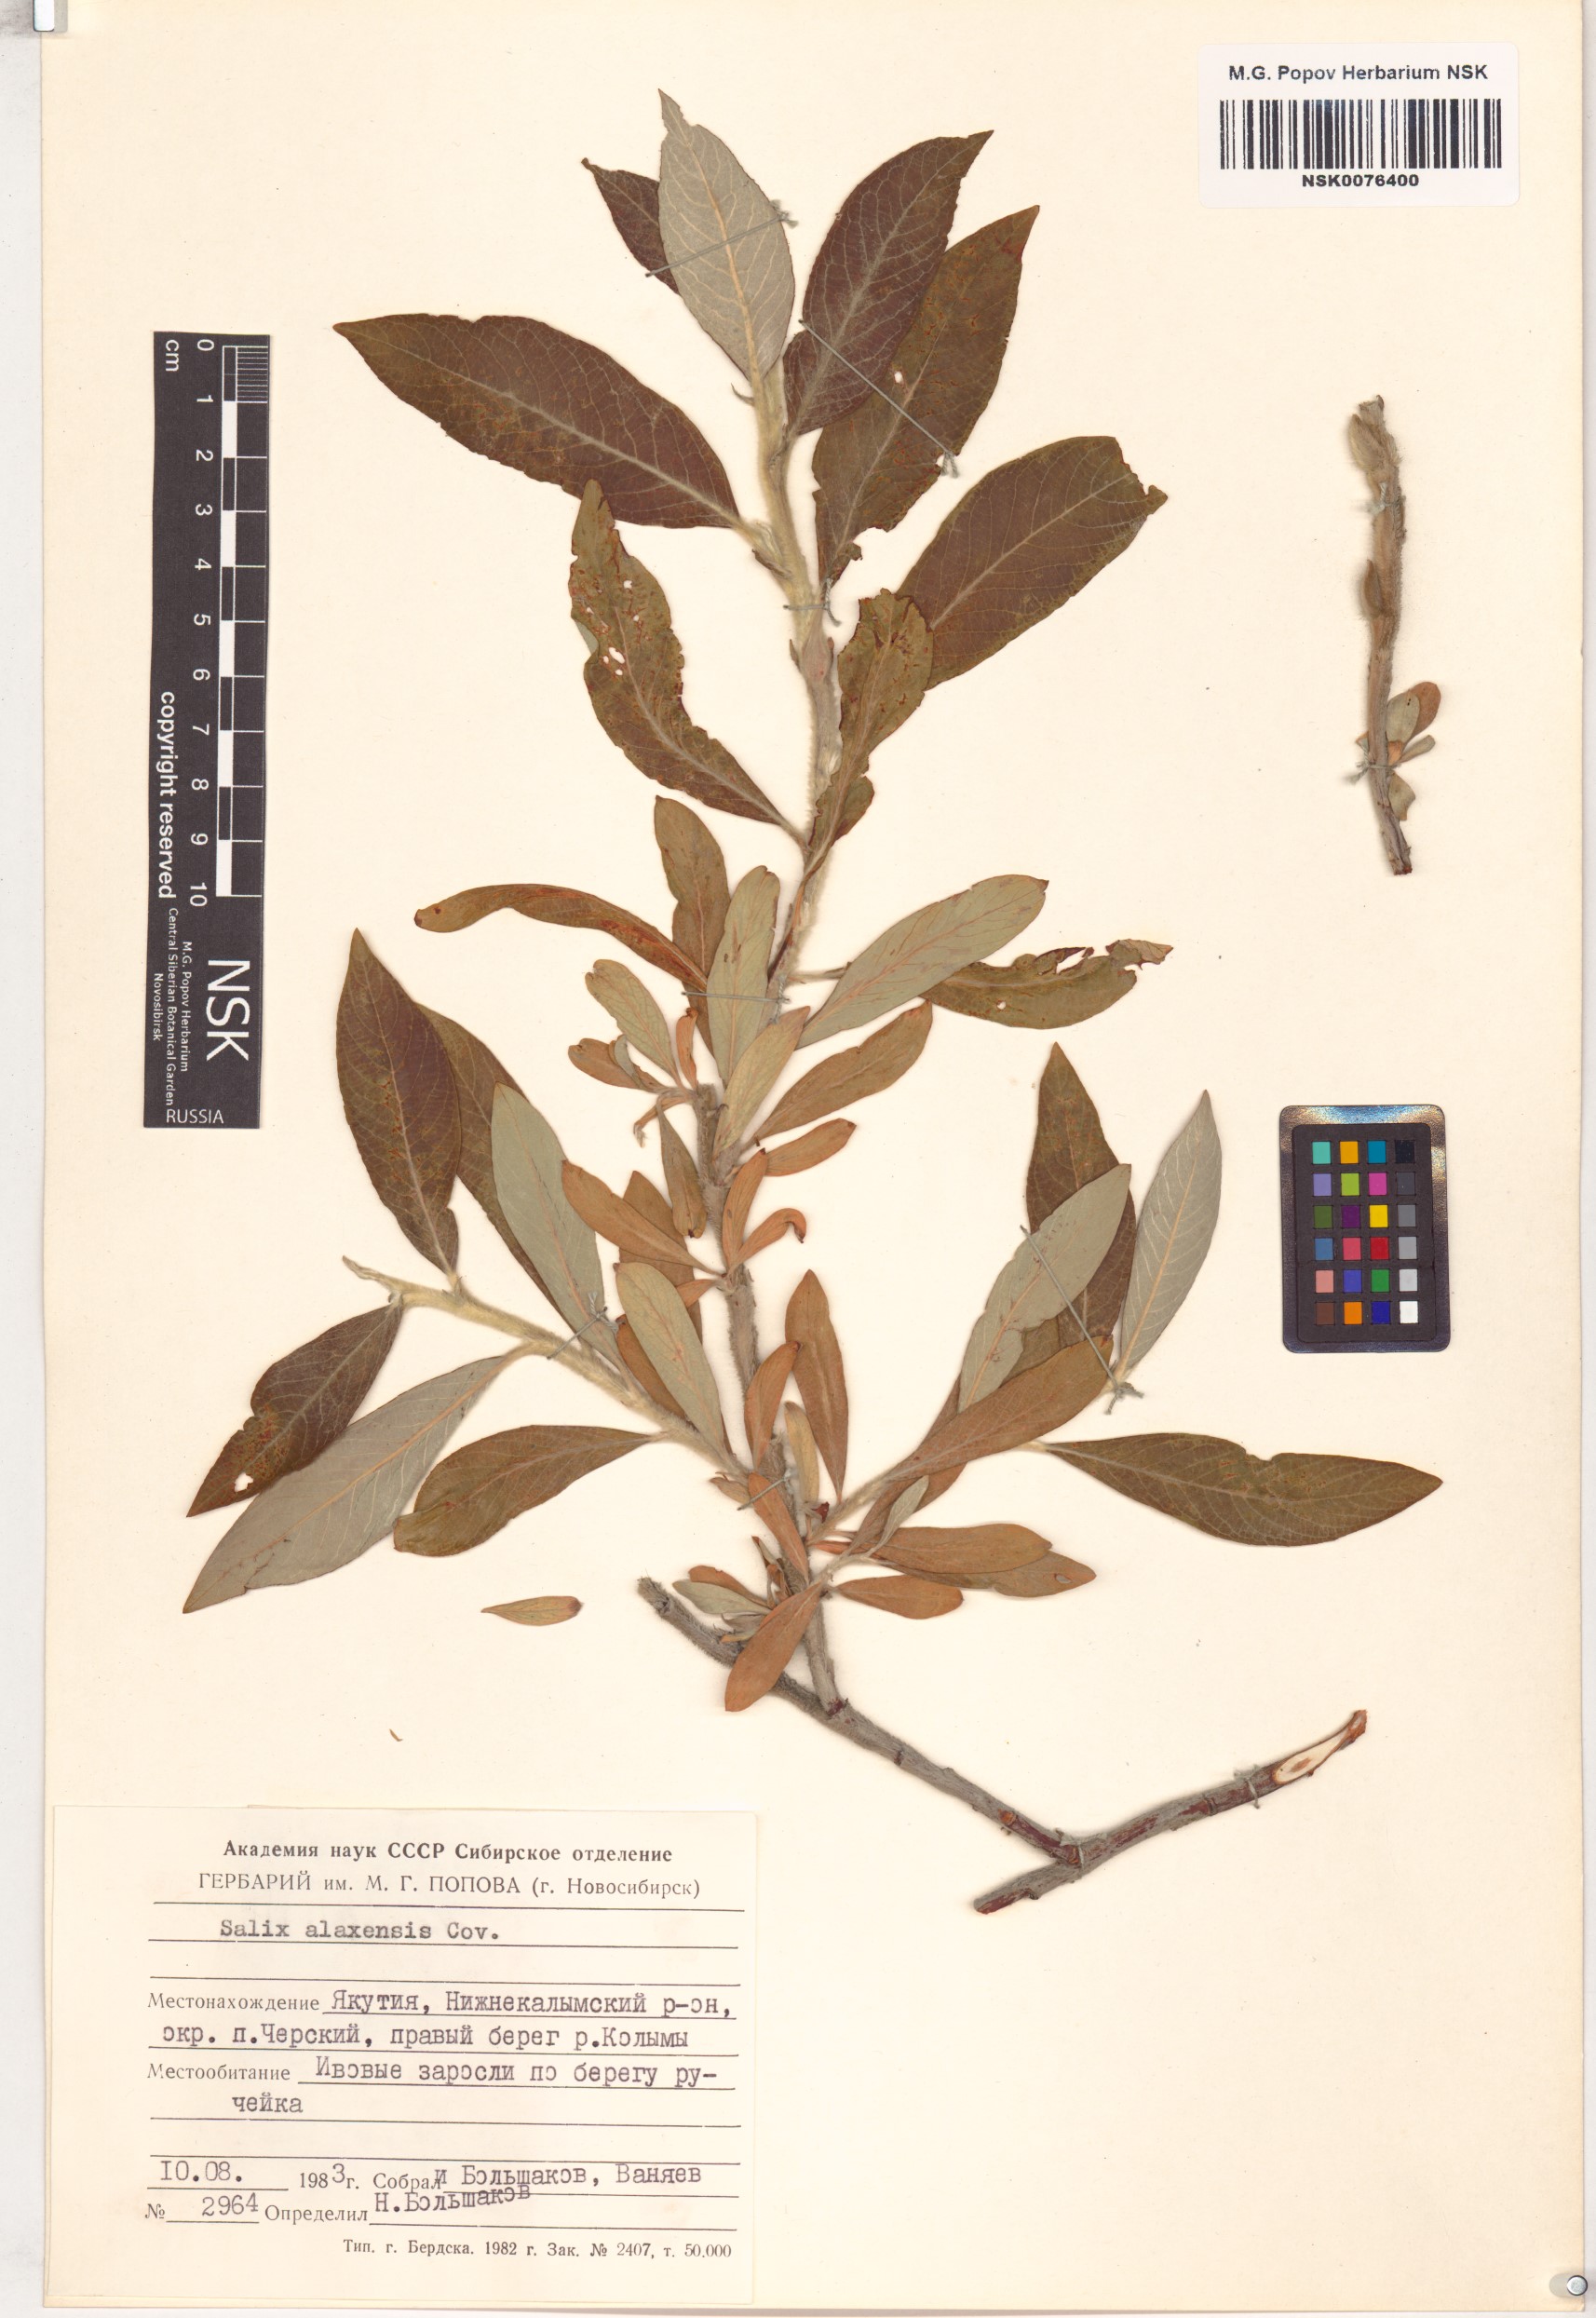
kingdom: Plantae
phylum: Tracheophyta
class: Magnoliopsida
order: Malpighiales
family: Salicaceae
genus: Salix
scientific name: Salix alaxensis
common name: Feltleaf willow
